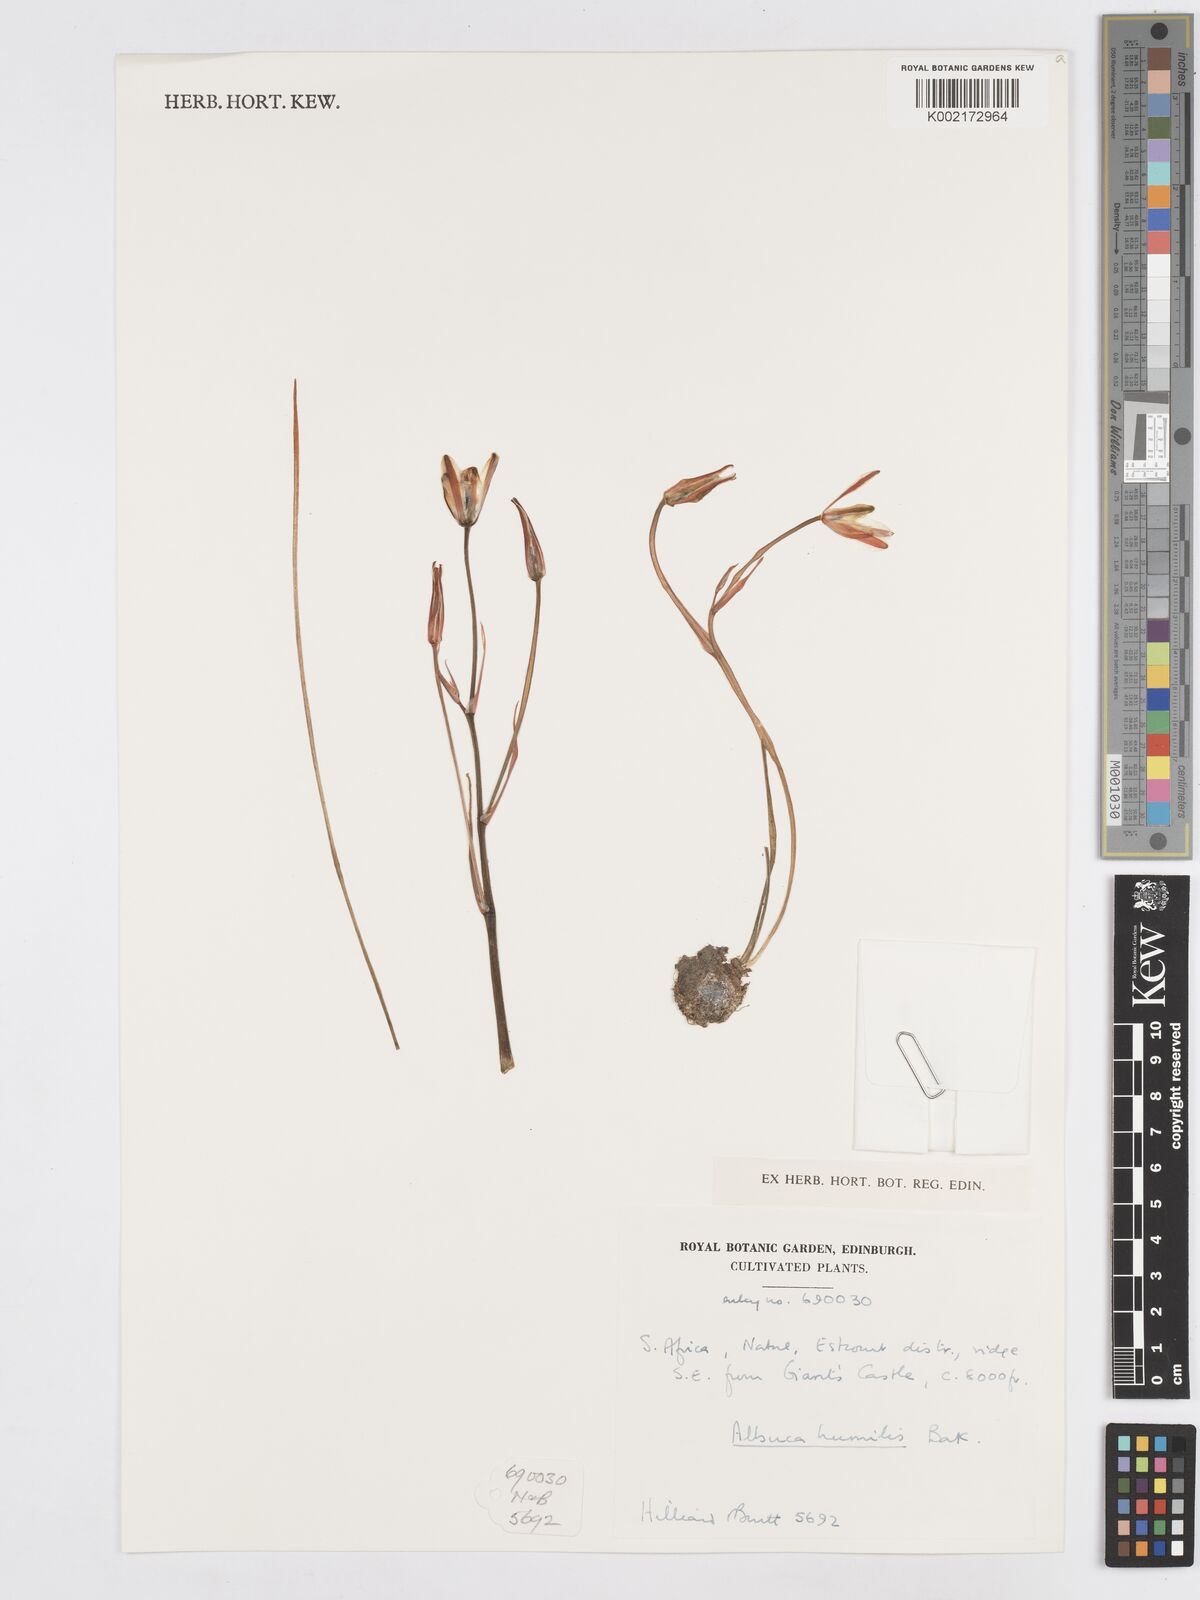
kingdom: Plantae
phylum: Tracheophyta
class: Liliopsida
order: Asparagales
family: Asparagaceae
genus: Albuca
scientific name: Albuca humilis
